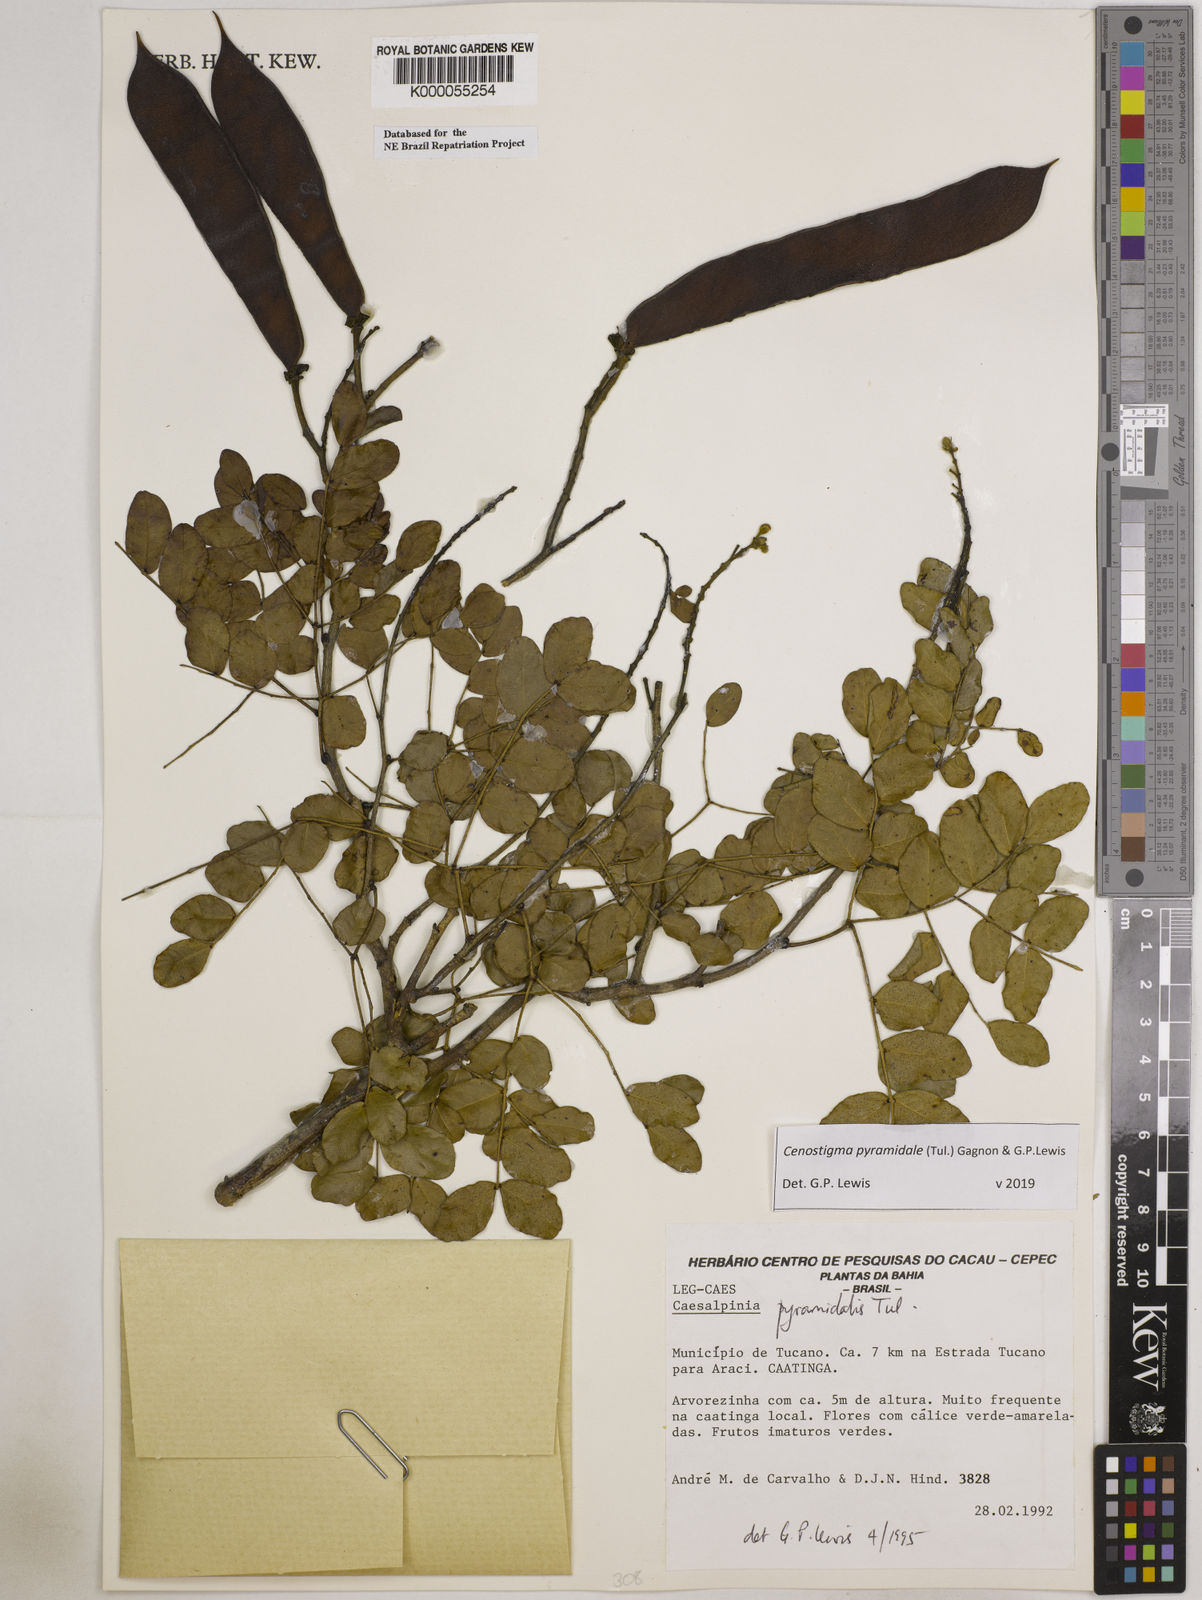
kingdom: Plantae
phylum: Tracheophyta
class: Magnoliopsida
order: Fabales
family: Fabaceae
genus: Cenostigma
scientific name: Cenostigma pyramidale
